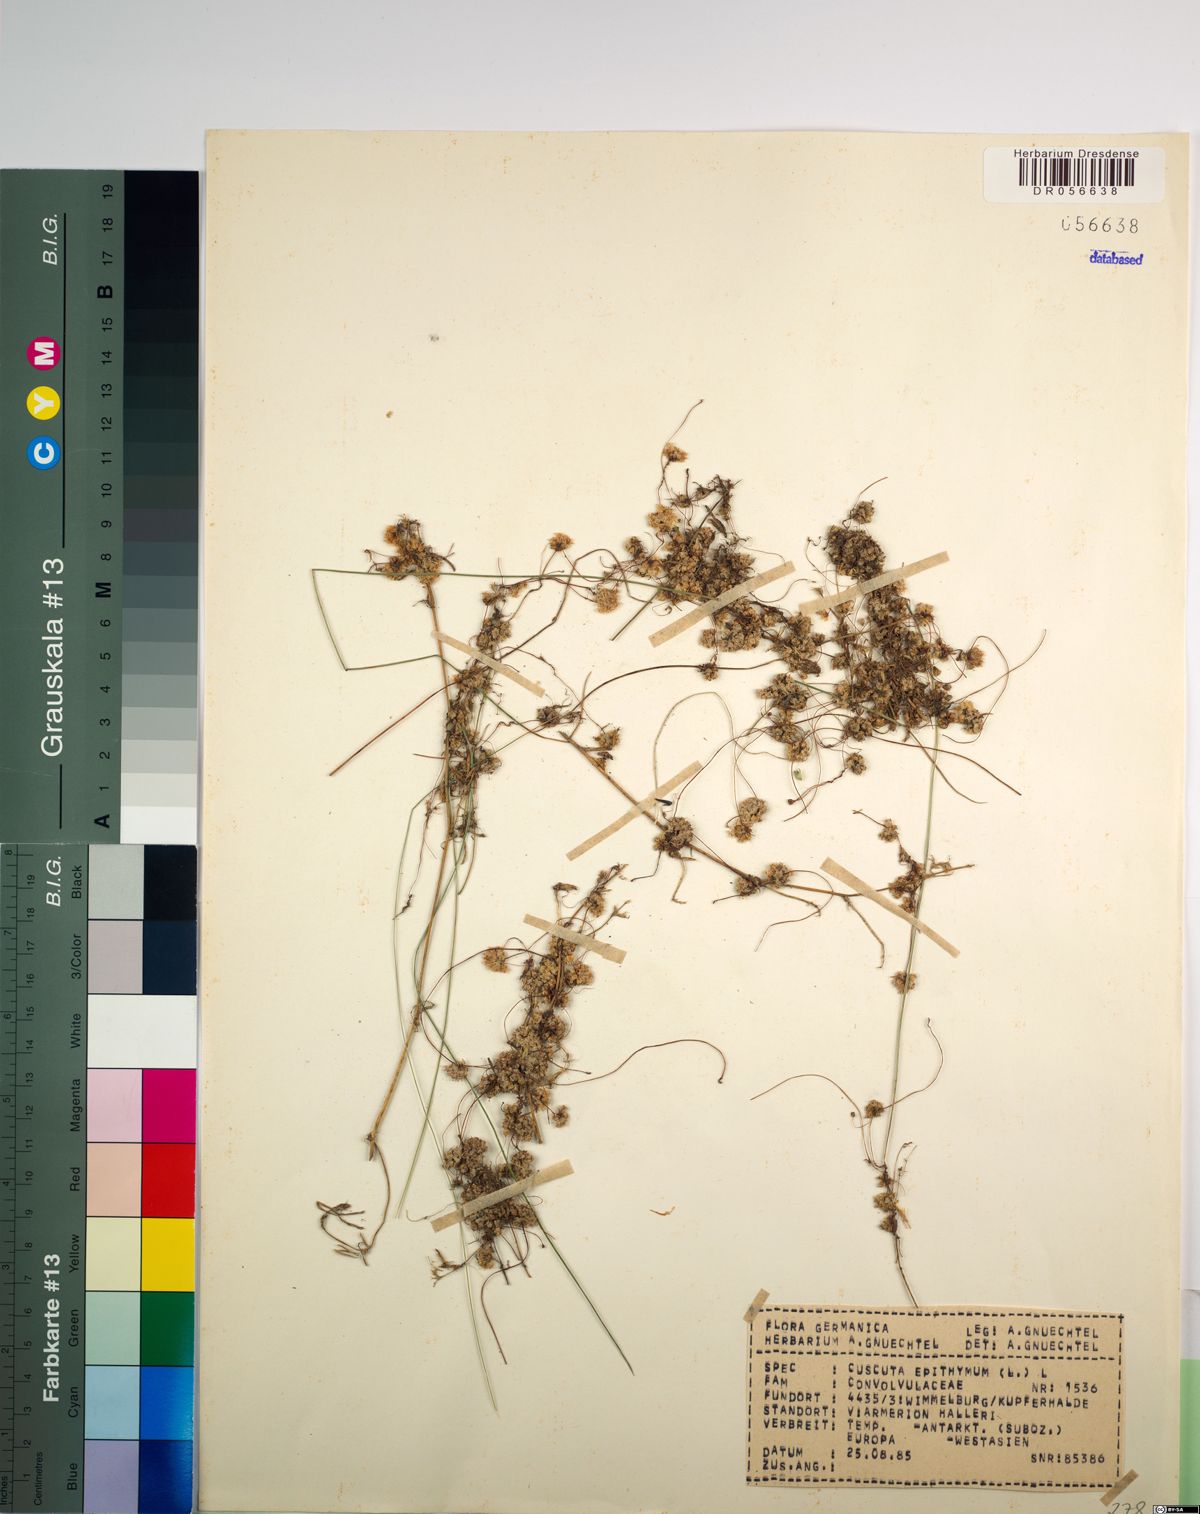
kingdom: Plantae
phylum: Tracheophyta
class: Magnoliopsida
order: Solanales
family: Convolvulaceae
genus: Cuscuta
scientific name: Cuscuta epithymum
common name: Clover dodder
